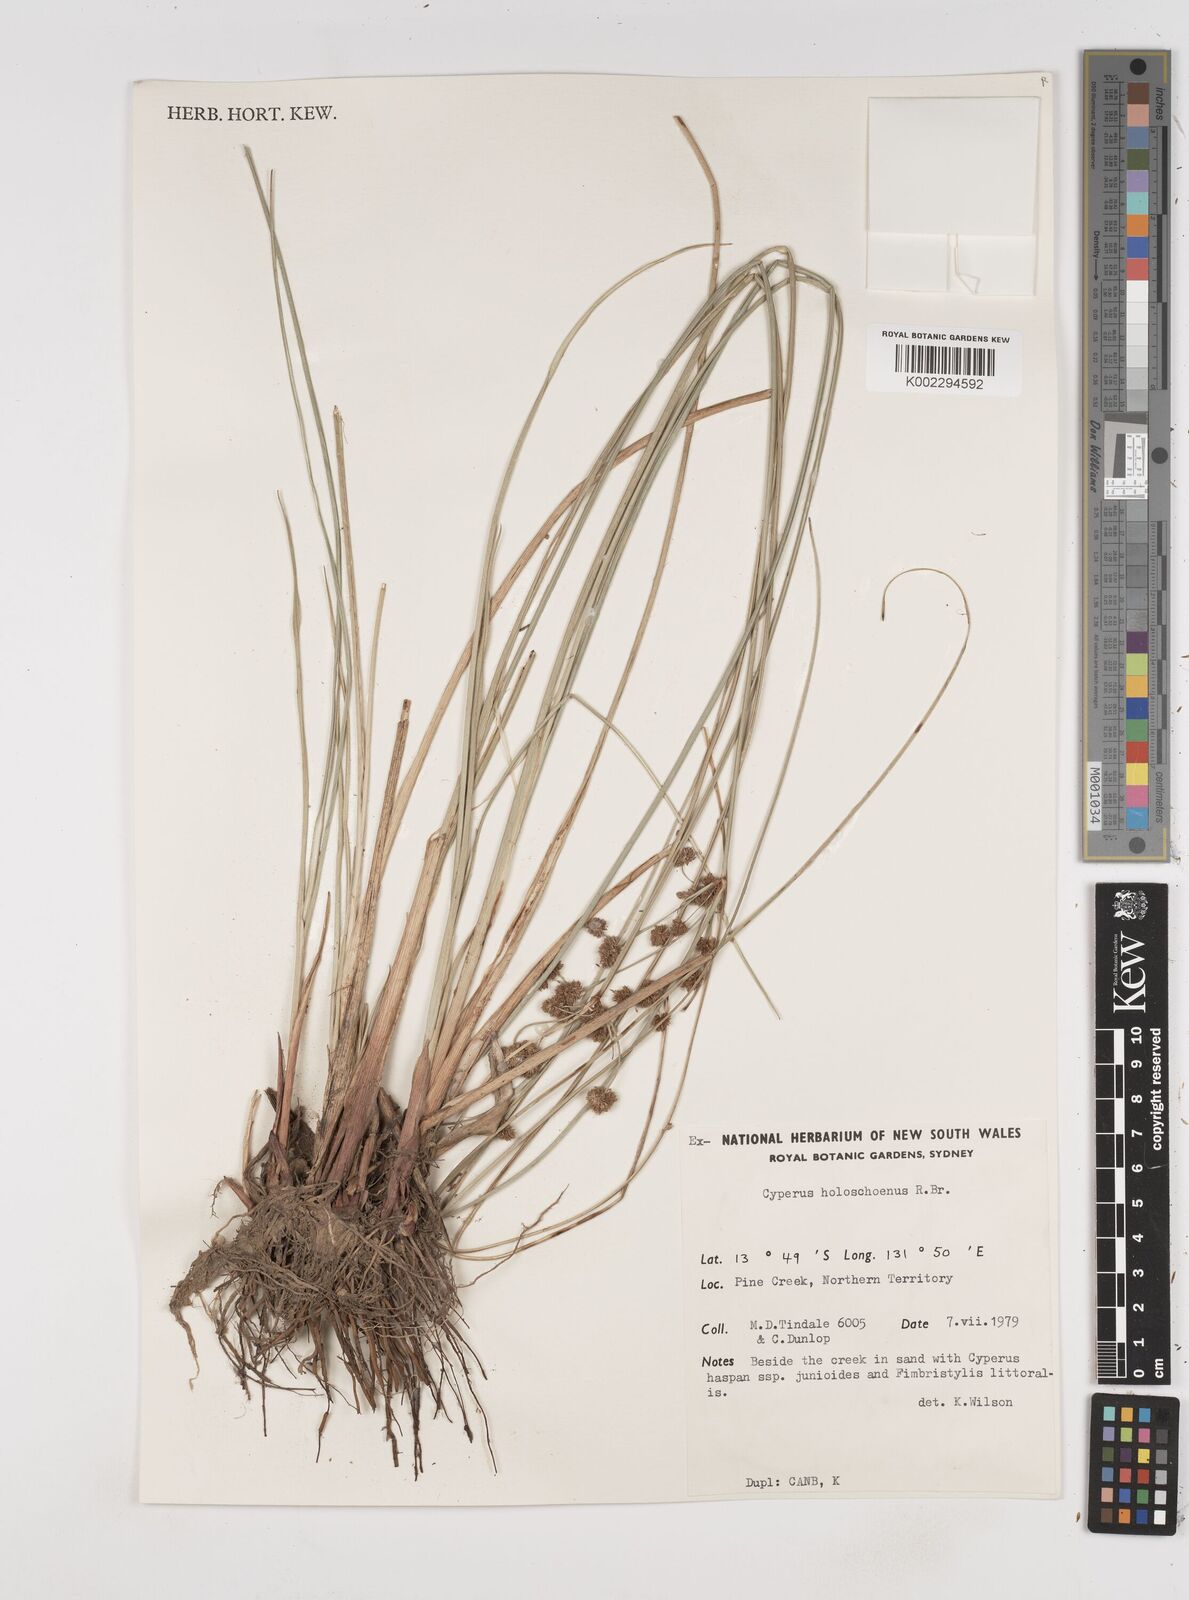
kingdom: Plantae
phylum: Tracheophyta
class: Liliopsida
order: Poales
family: Cyperaceae
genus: Cyperus
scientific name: Cyperus holoschoenus
